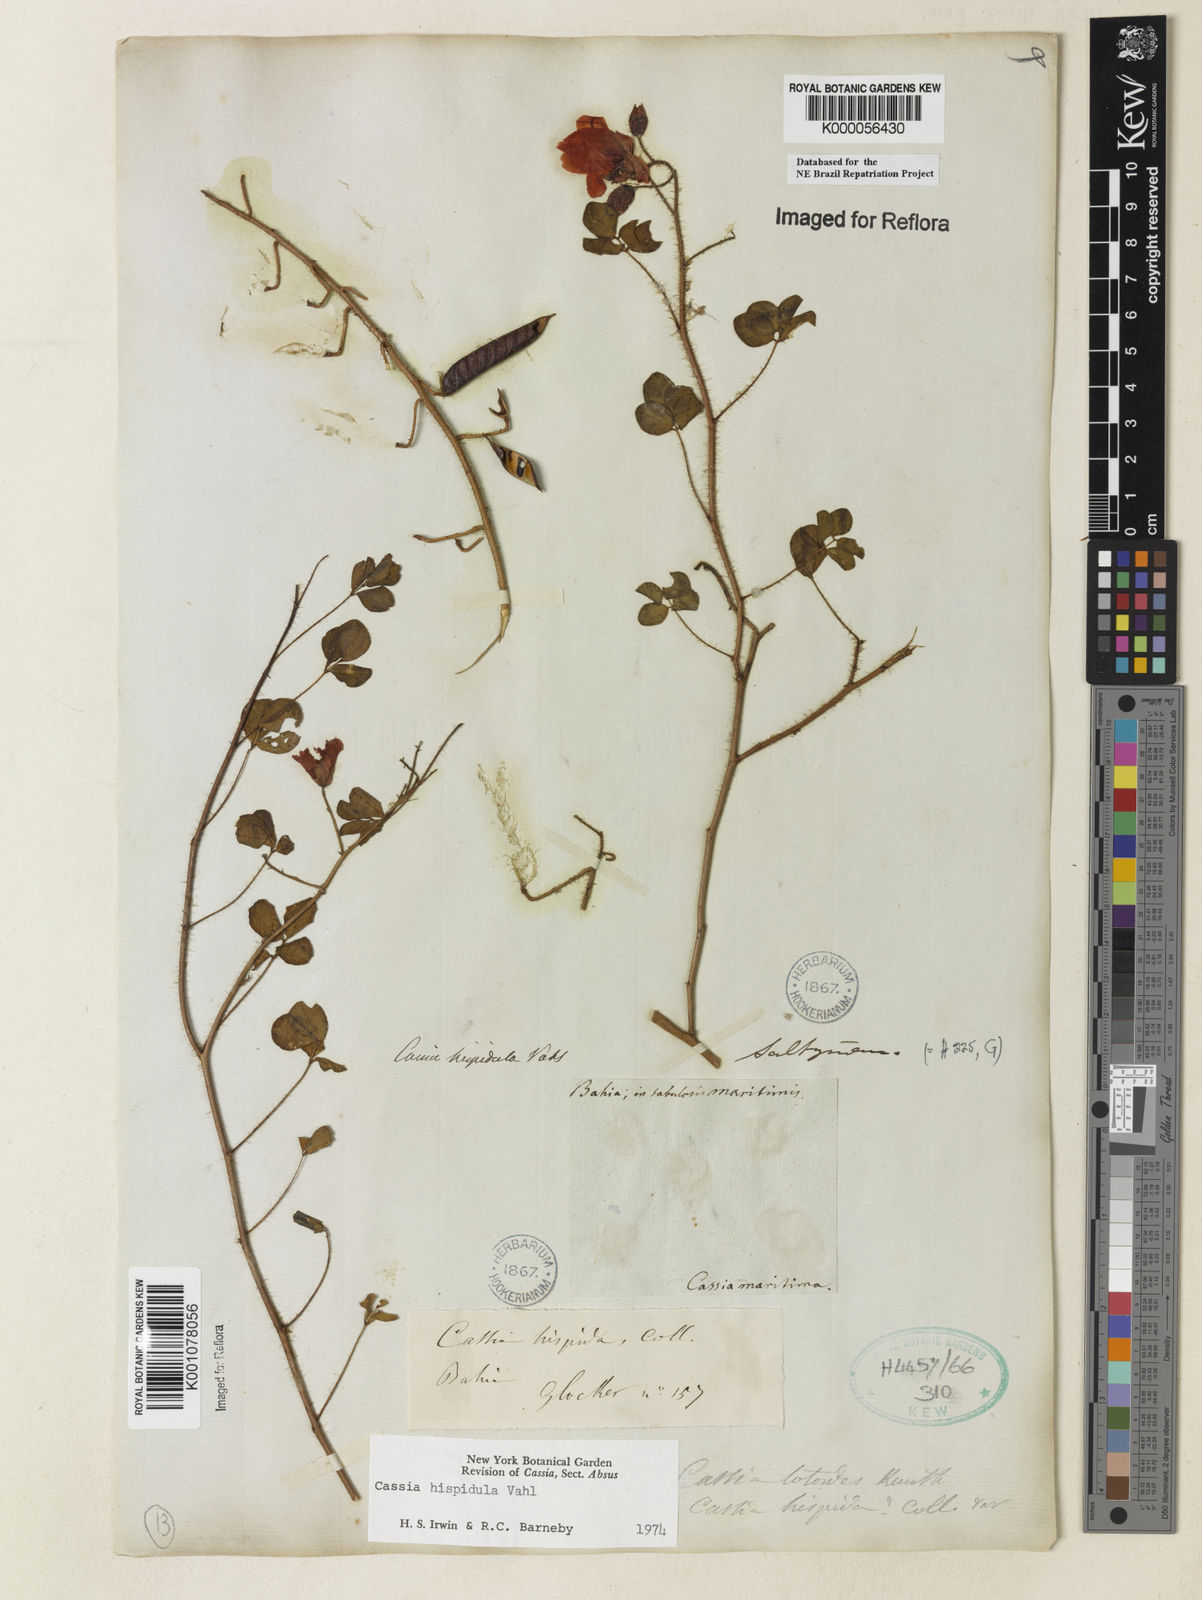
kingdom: Plantae
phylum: Tracheophyta
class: Magnoliopsida
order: Fabales
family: Fabaceae
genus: Chamaecrista
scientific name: Chamaecrista hispidula
